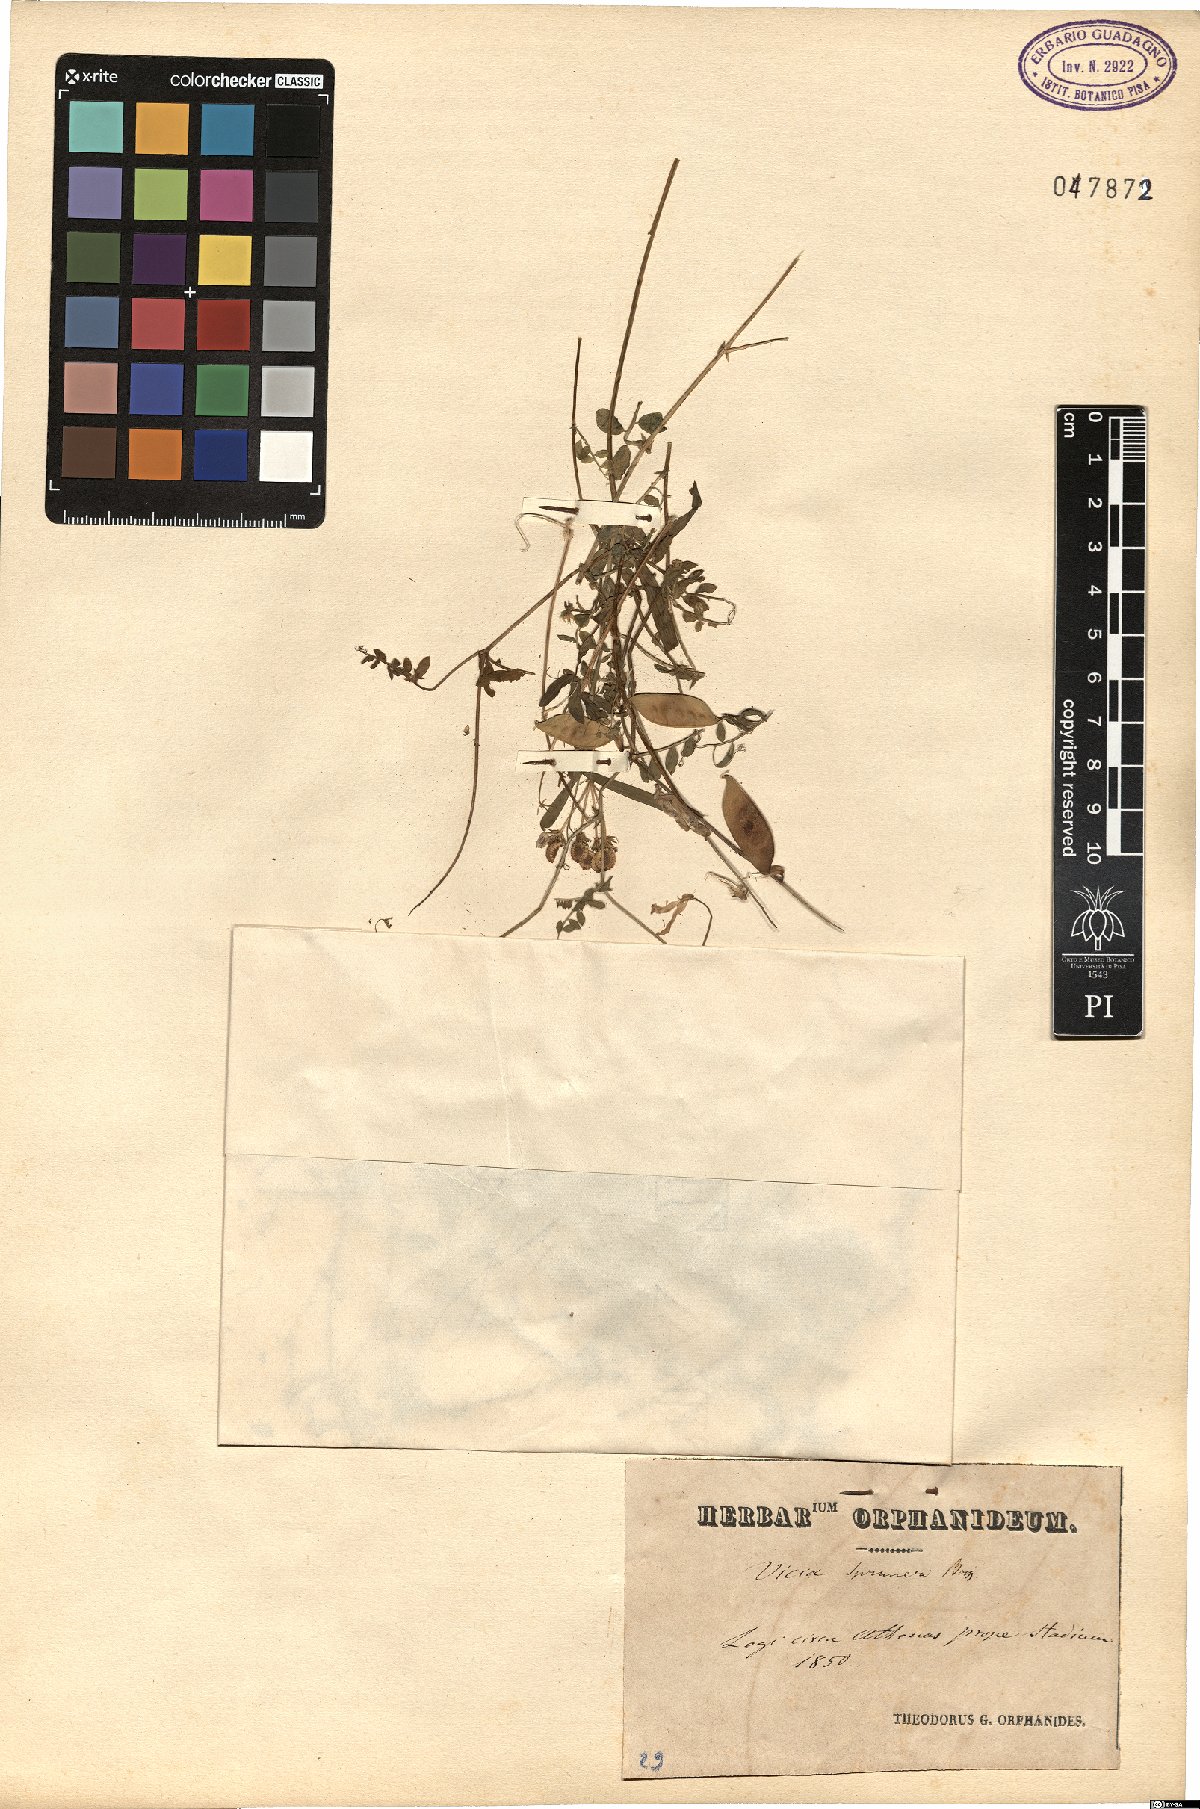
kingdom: Plantae
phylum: Tracheophyta
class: Magnoliopsida
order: Fabales
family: Fabaceae
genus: Vicia
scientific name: Vicia cretica
